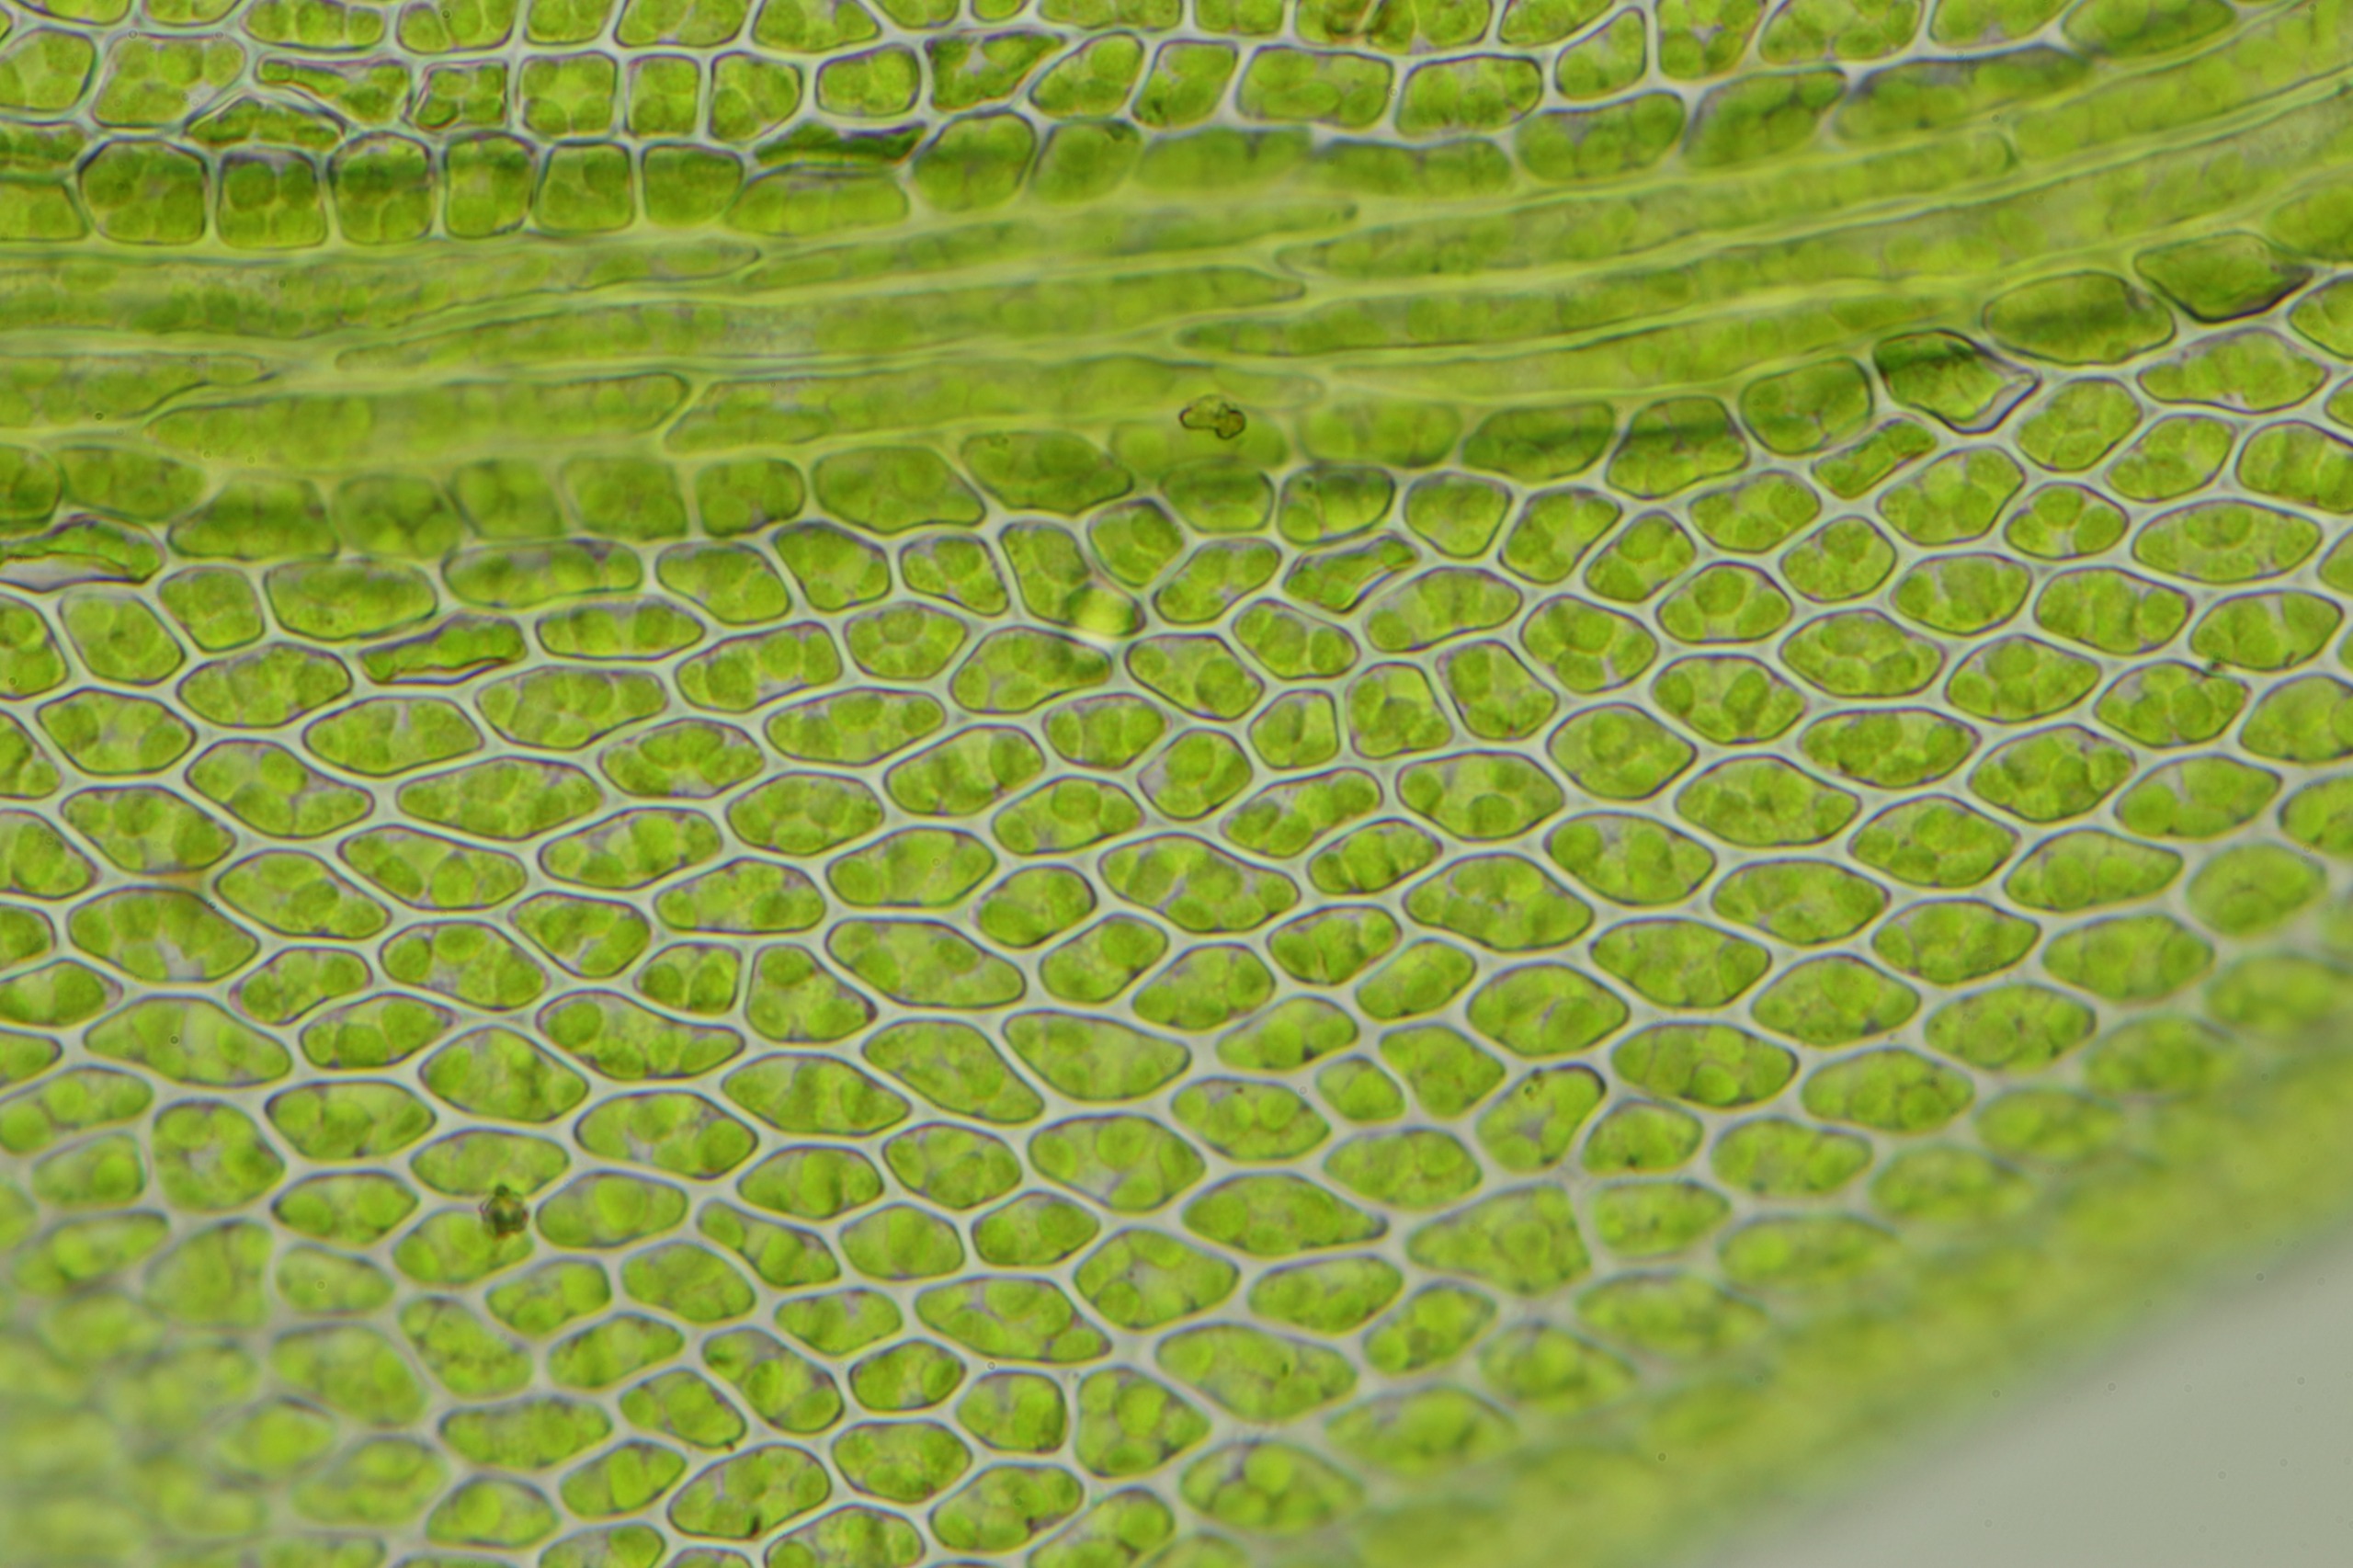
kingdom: Plantae
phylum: Bryophyta
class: Bryopsida
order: Hypnales
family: Leskeaceae
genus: Leskea
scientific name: Leskea polycarpa
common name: Mat lærkemos
